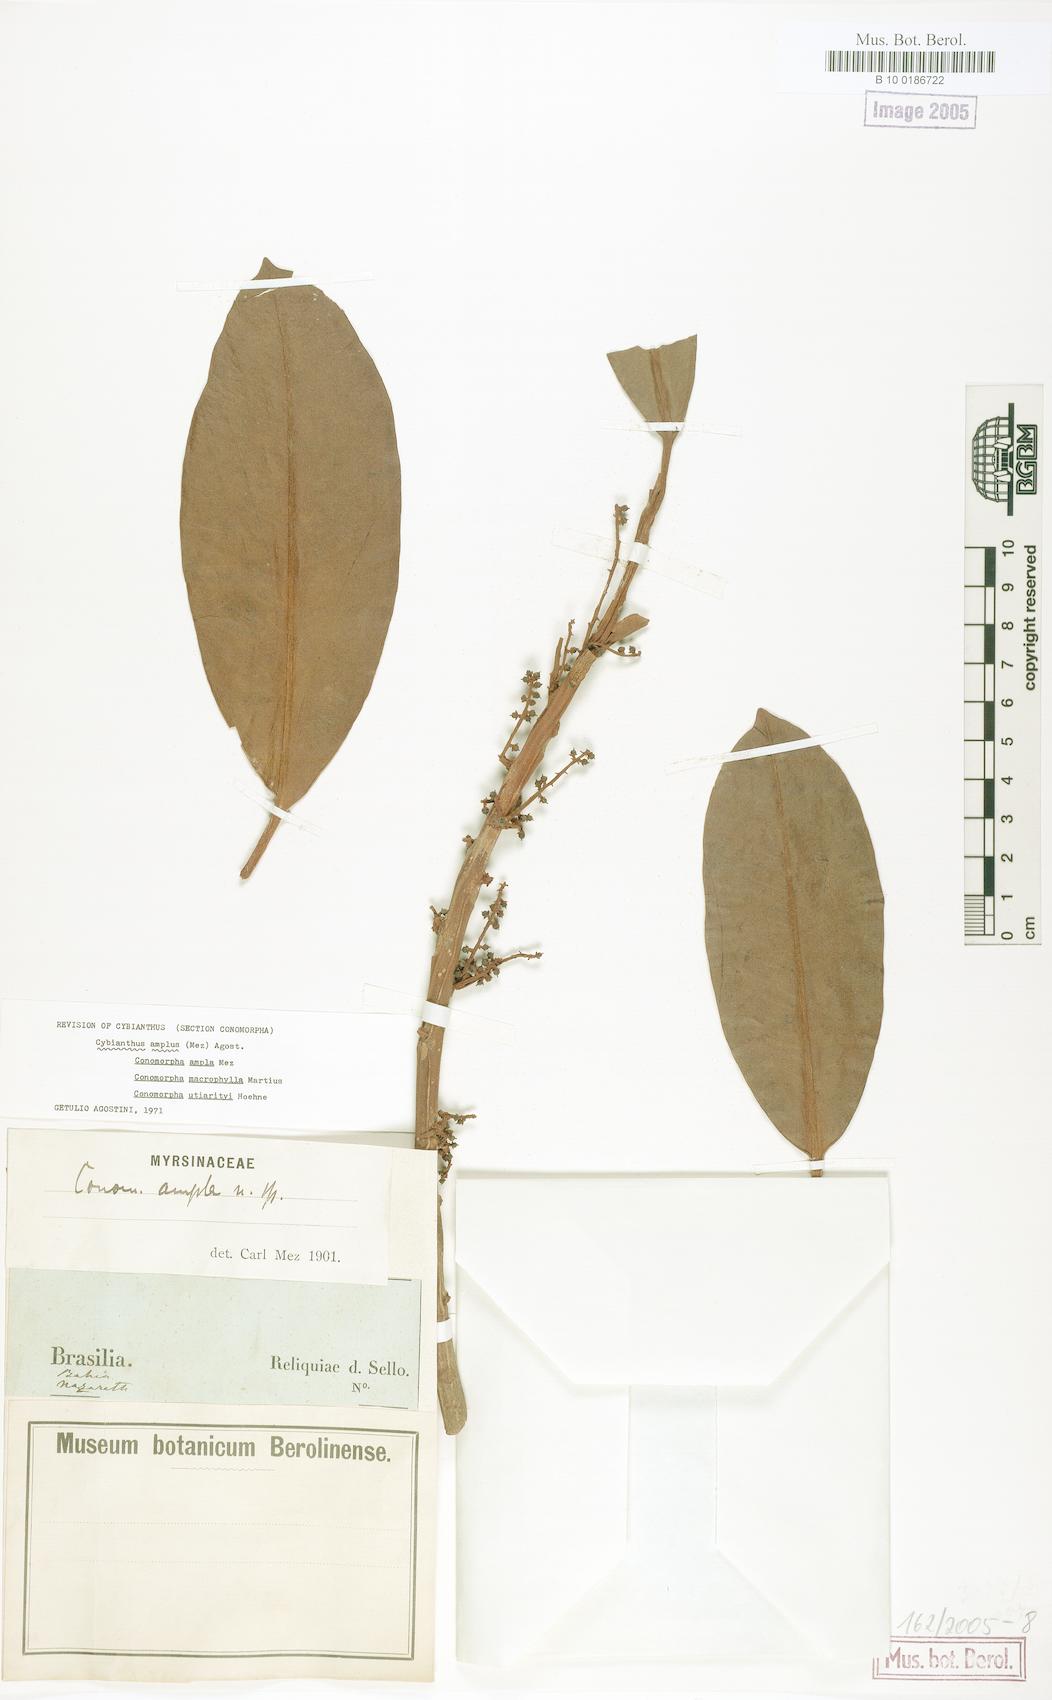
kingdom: Plantae
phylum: Tracheophyta
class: Magnoliopsida
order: Ericales
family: Primulaceae
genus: Cybianthus
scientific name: Cybianthus amplus
